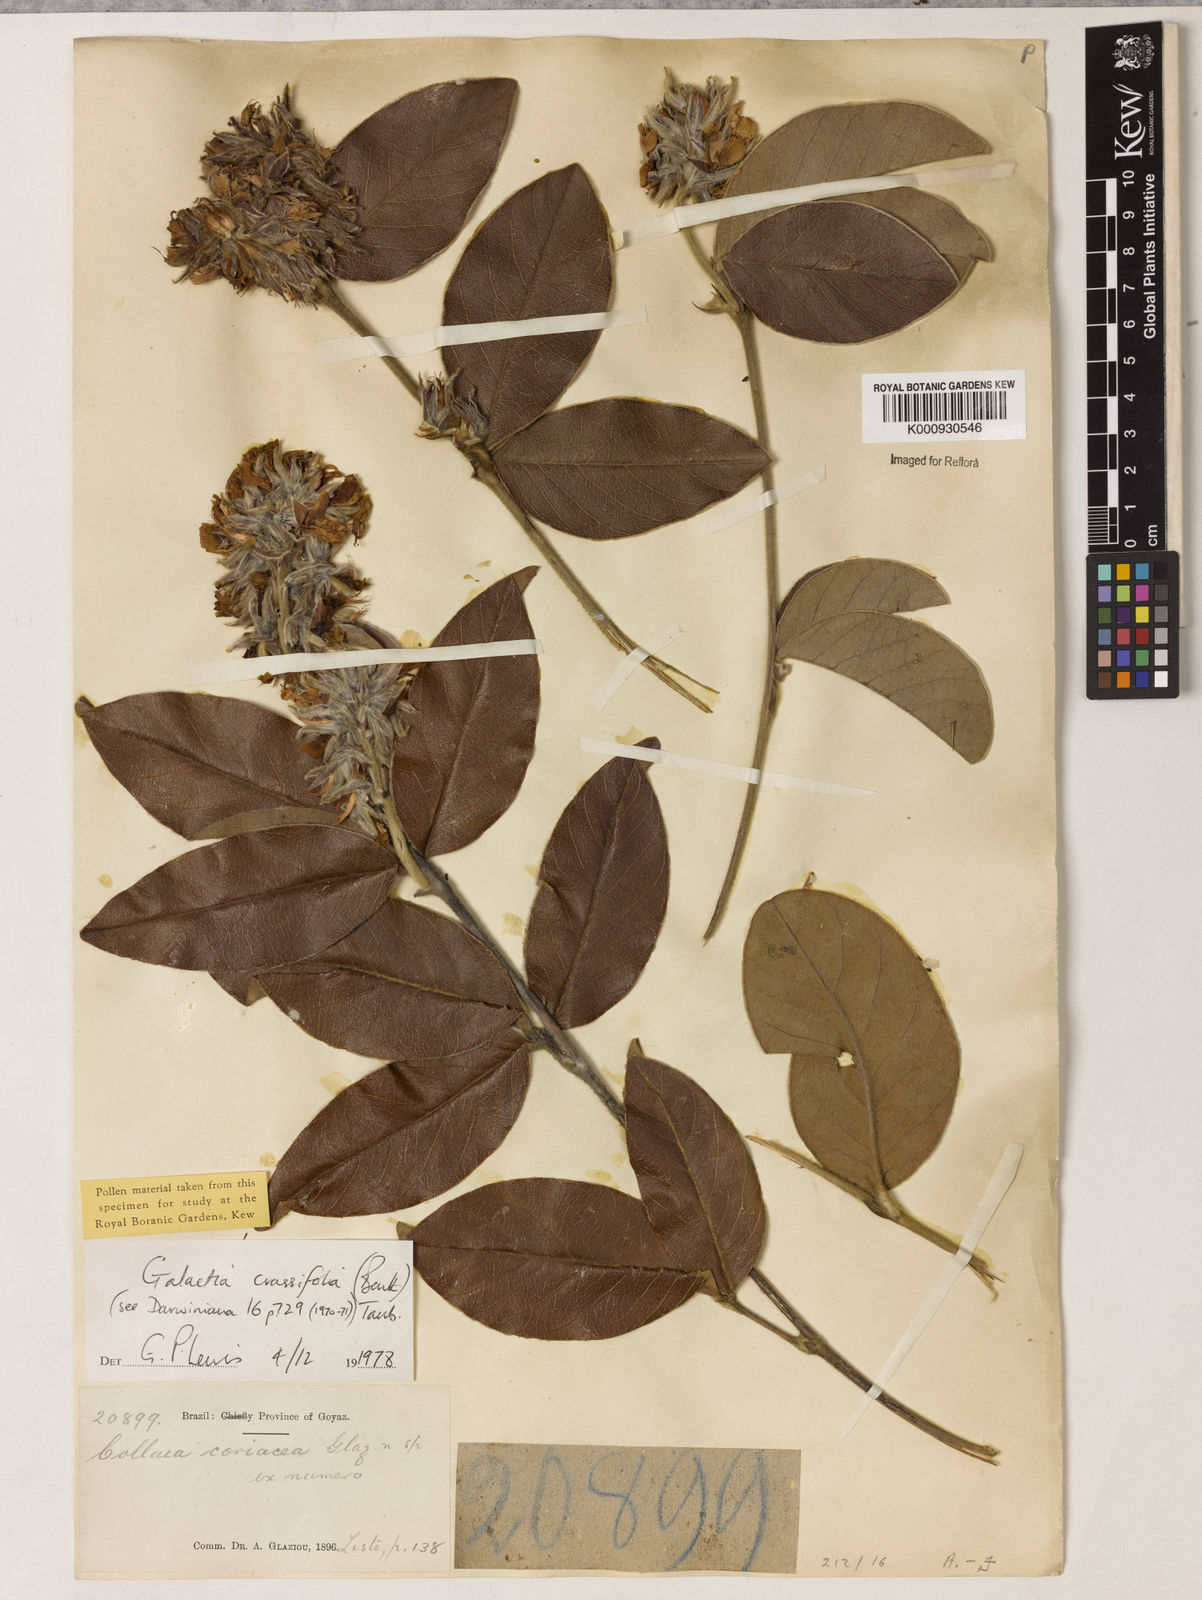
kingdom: Plantae
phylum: Tracheophyta
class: Magnoliopsida
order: Fabales
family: Fabaceae
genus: Betencourtia
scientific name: Betencourtia crassifolia
